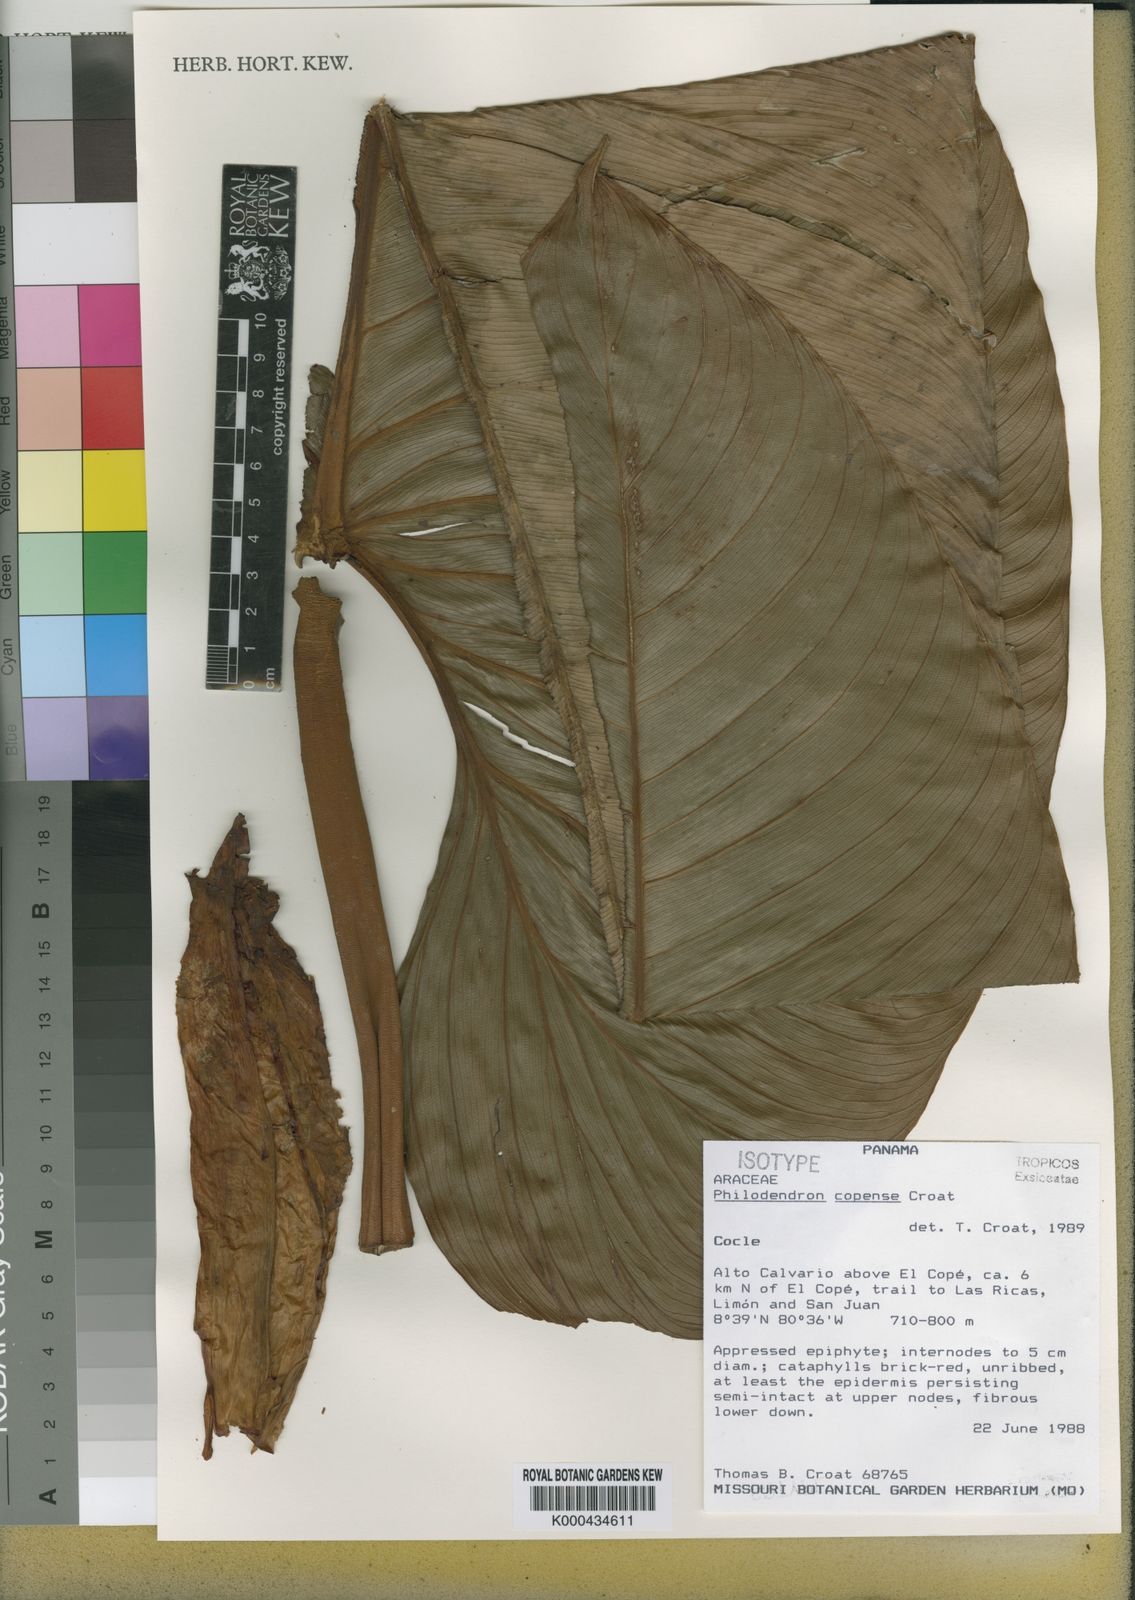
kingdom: Plantae
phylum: Tracheophyta
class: Liliopsida
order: Alismatales
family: Araceae
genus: Philodendron
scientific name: Philodendron copense
